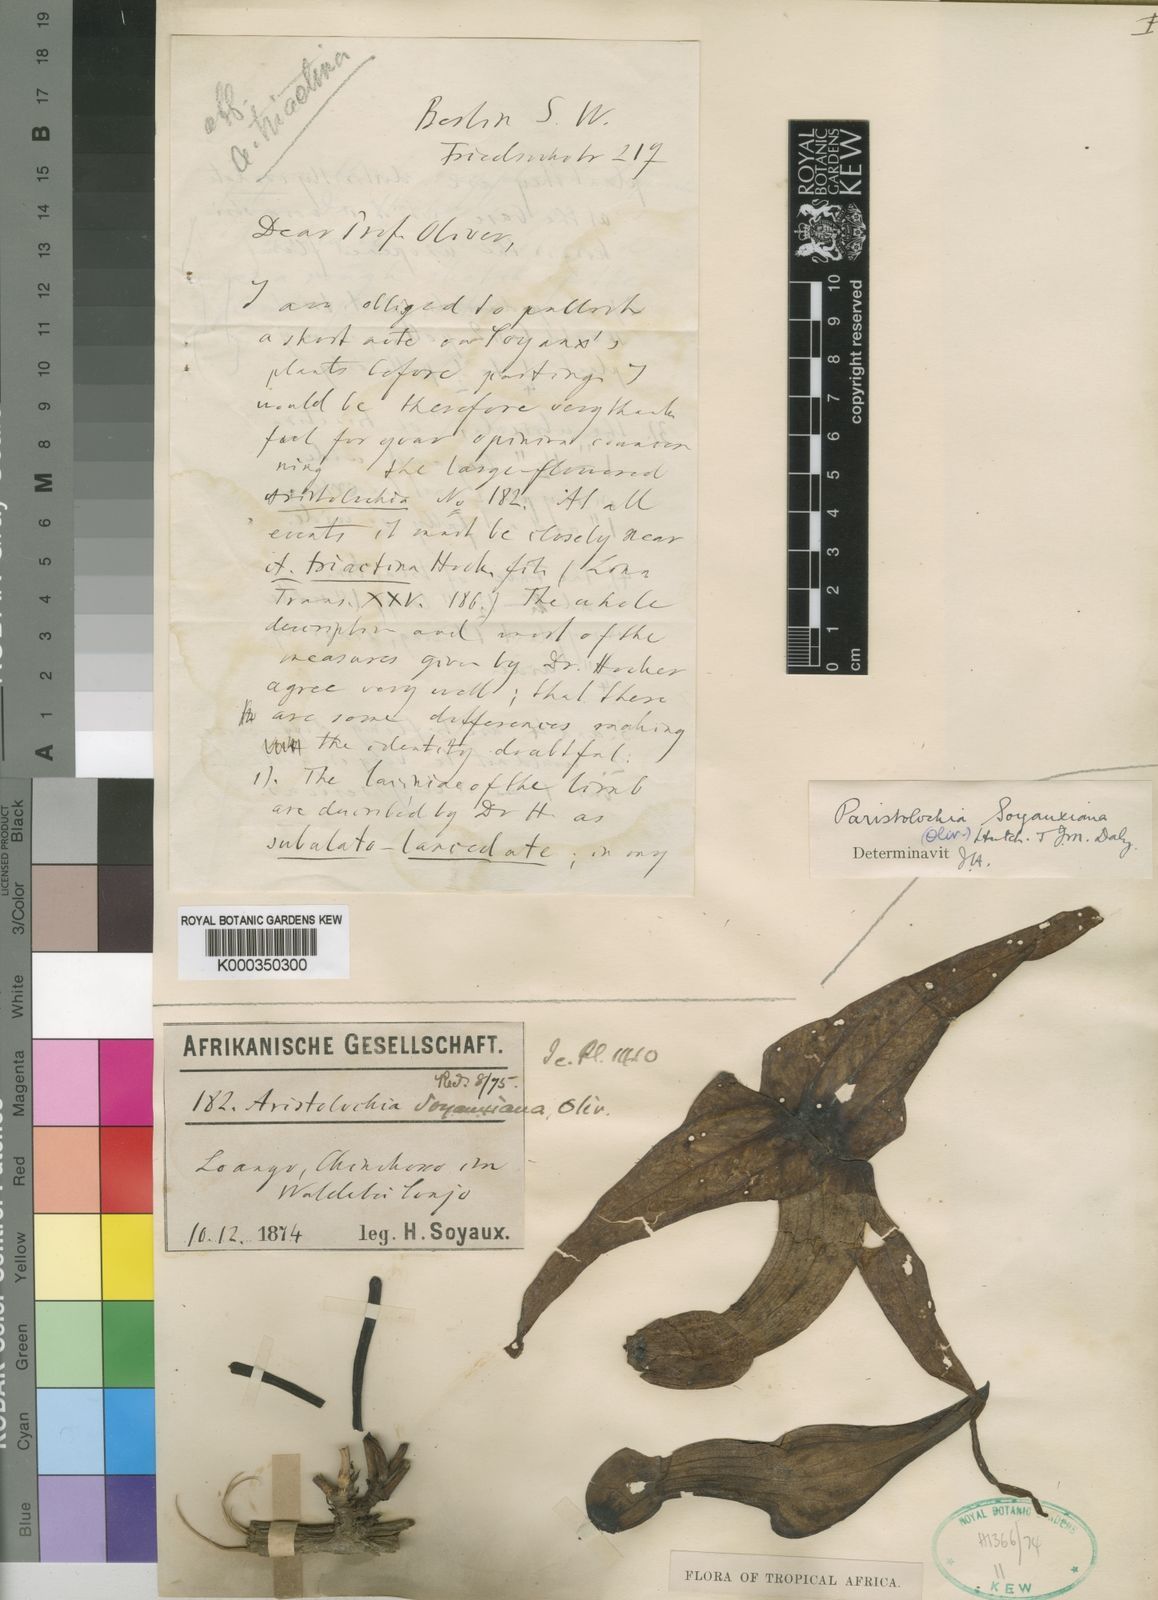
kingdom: Plantae
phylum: Tracheophyta
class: Magnoliopsida
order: Piperales
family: Aristolochiaceae
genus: Aristolochia
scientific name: Aristolochia macrocarpa
